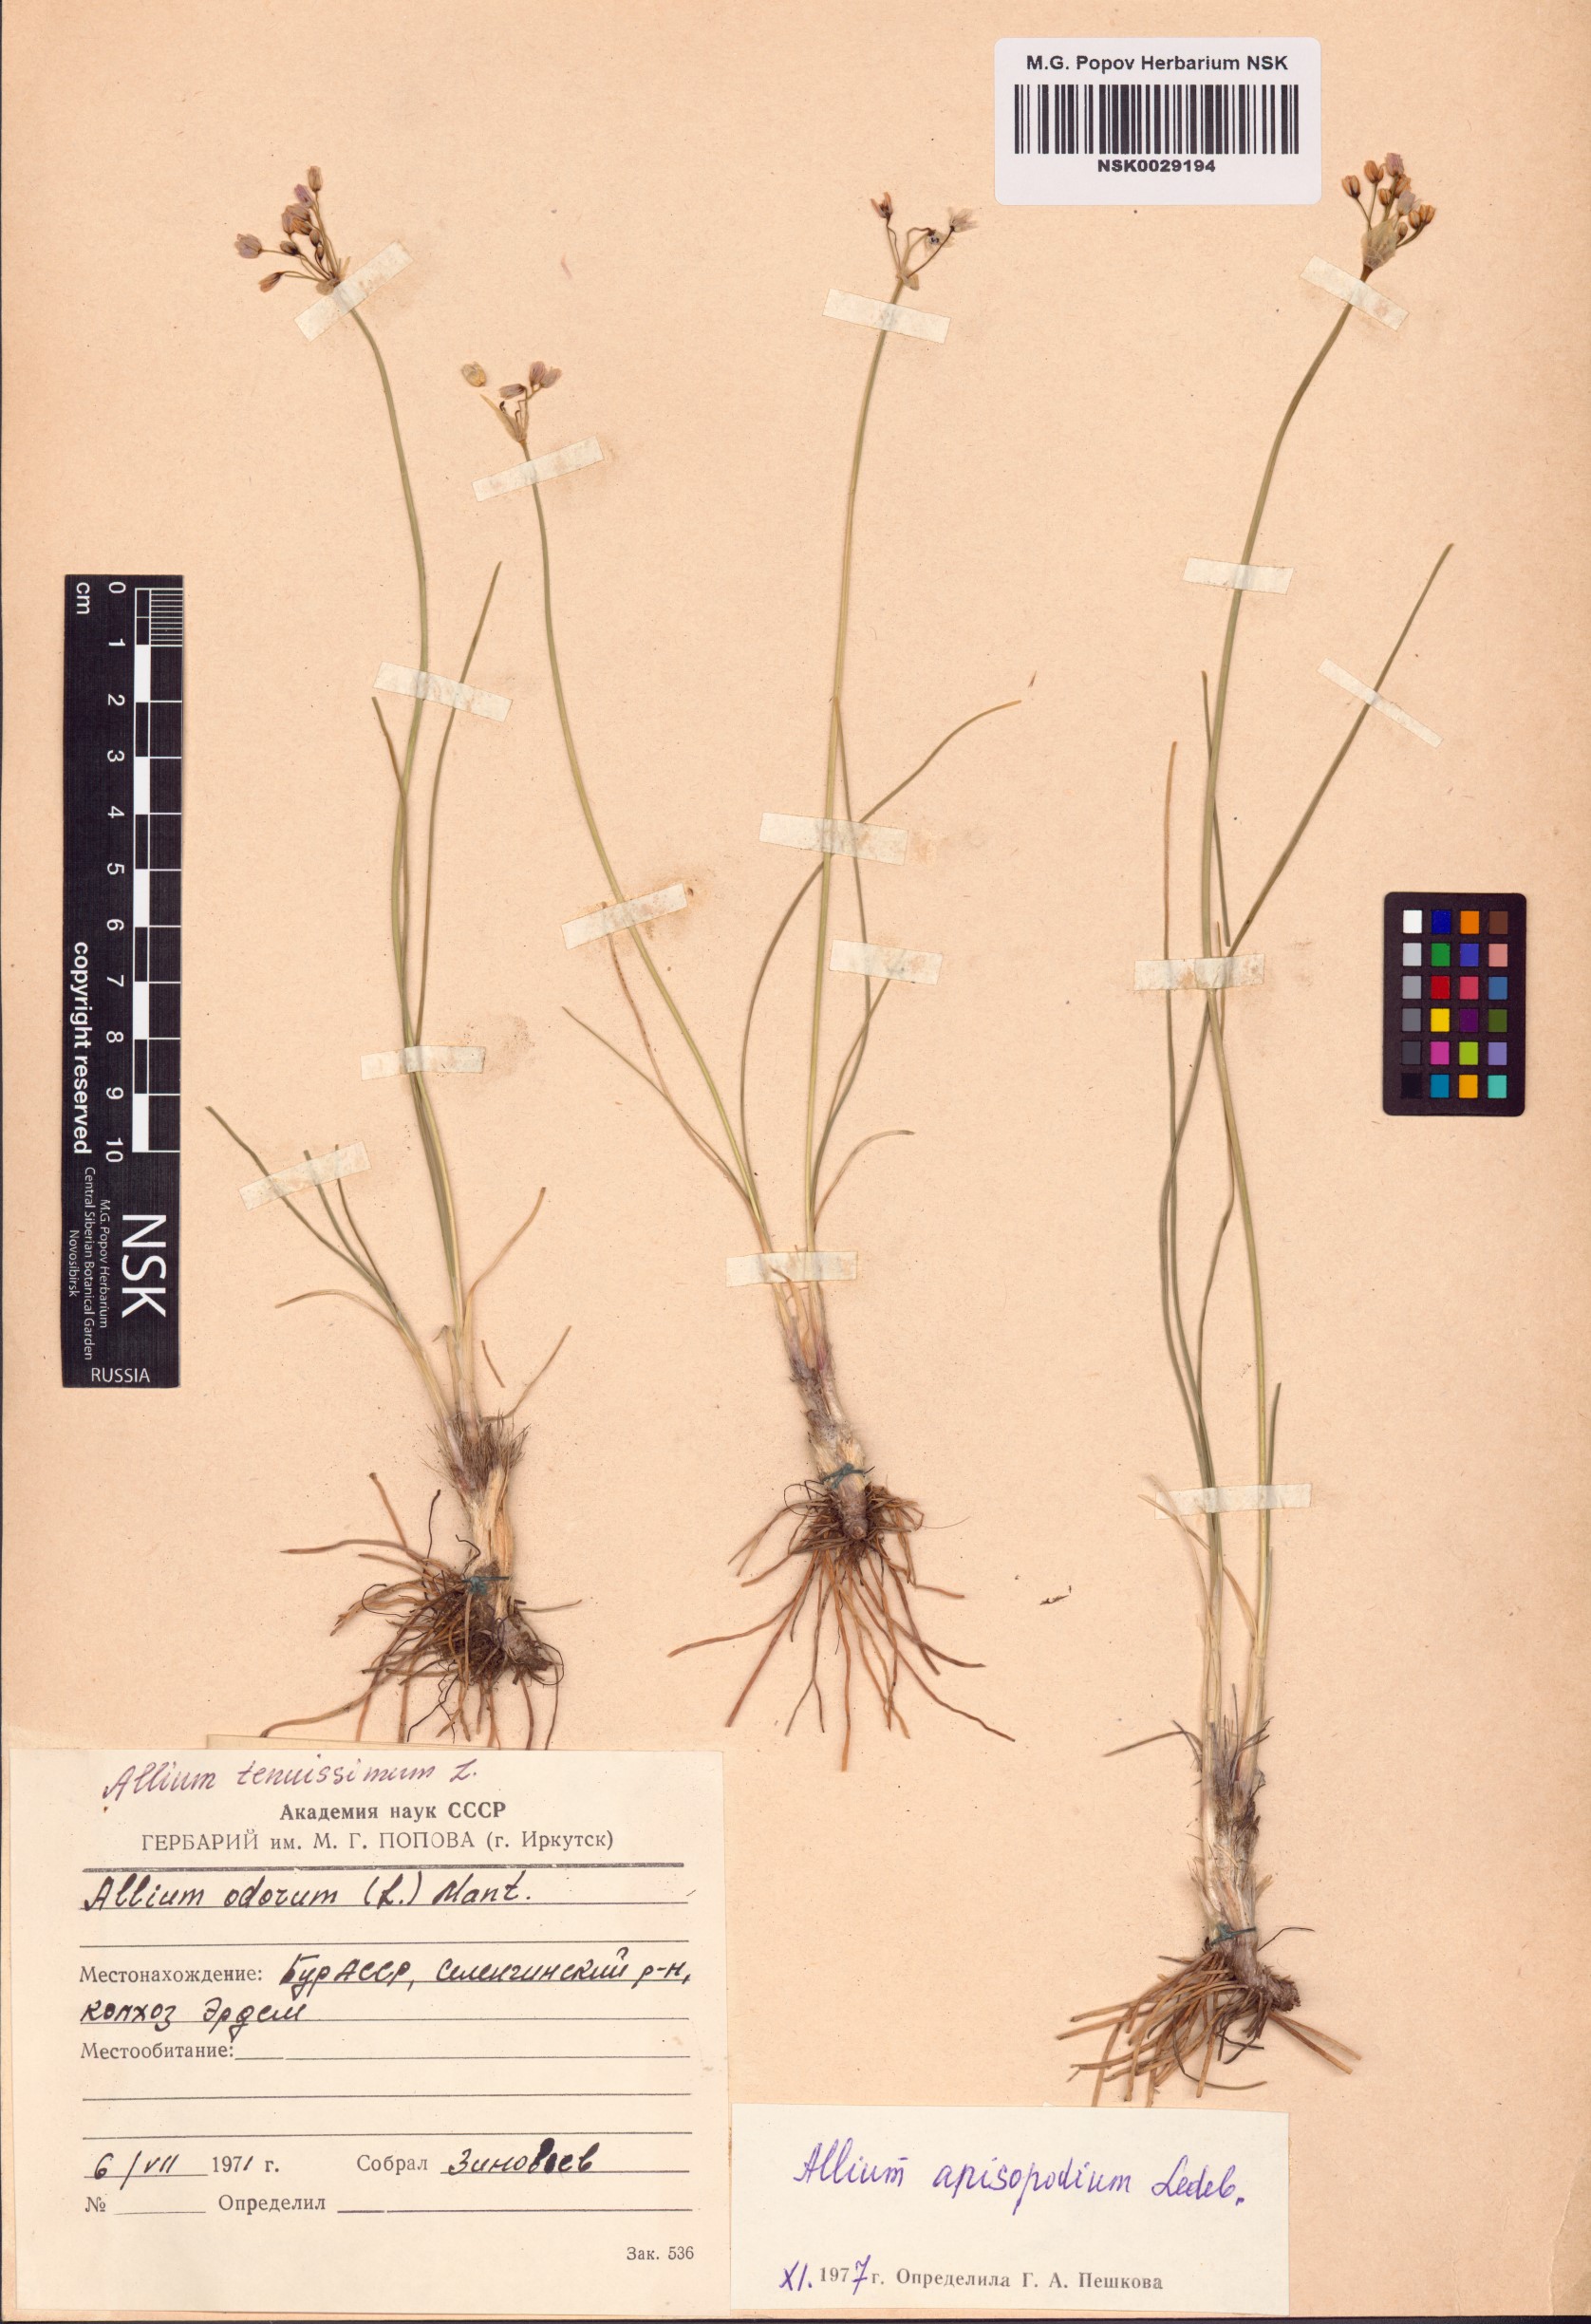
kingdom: Plantae
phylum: Tracheophyta
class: Liliopsida
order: Asparagales
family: Amaryllidaceae
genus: Allium
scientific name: Allium anisopodium
